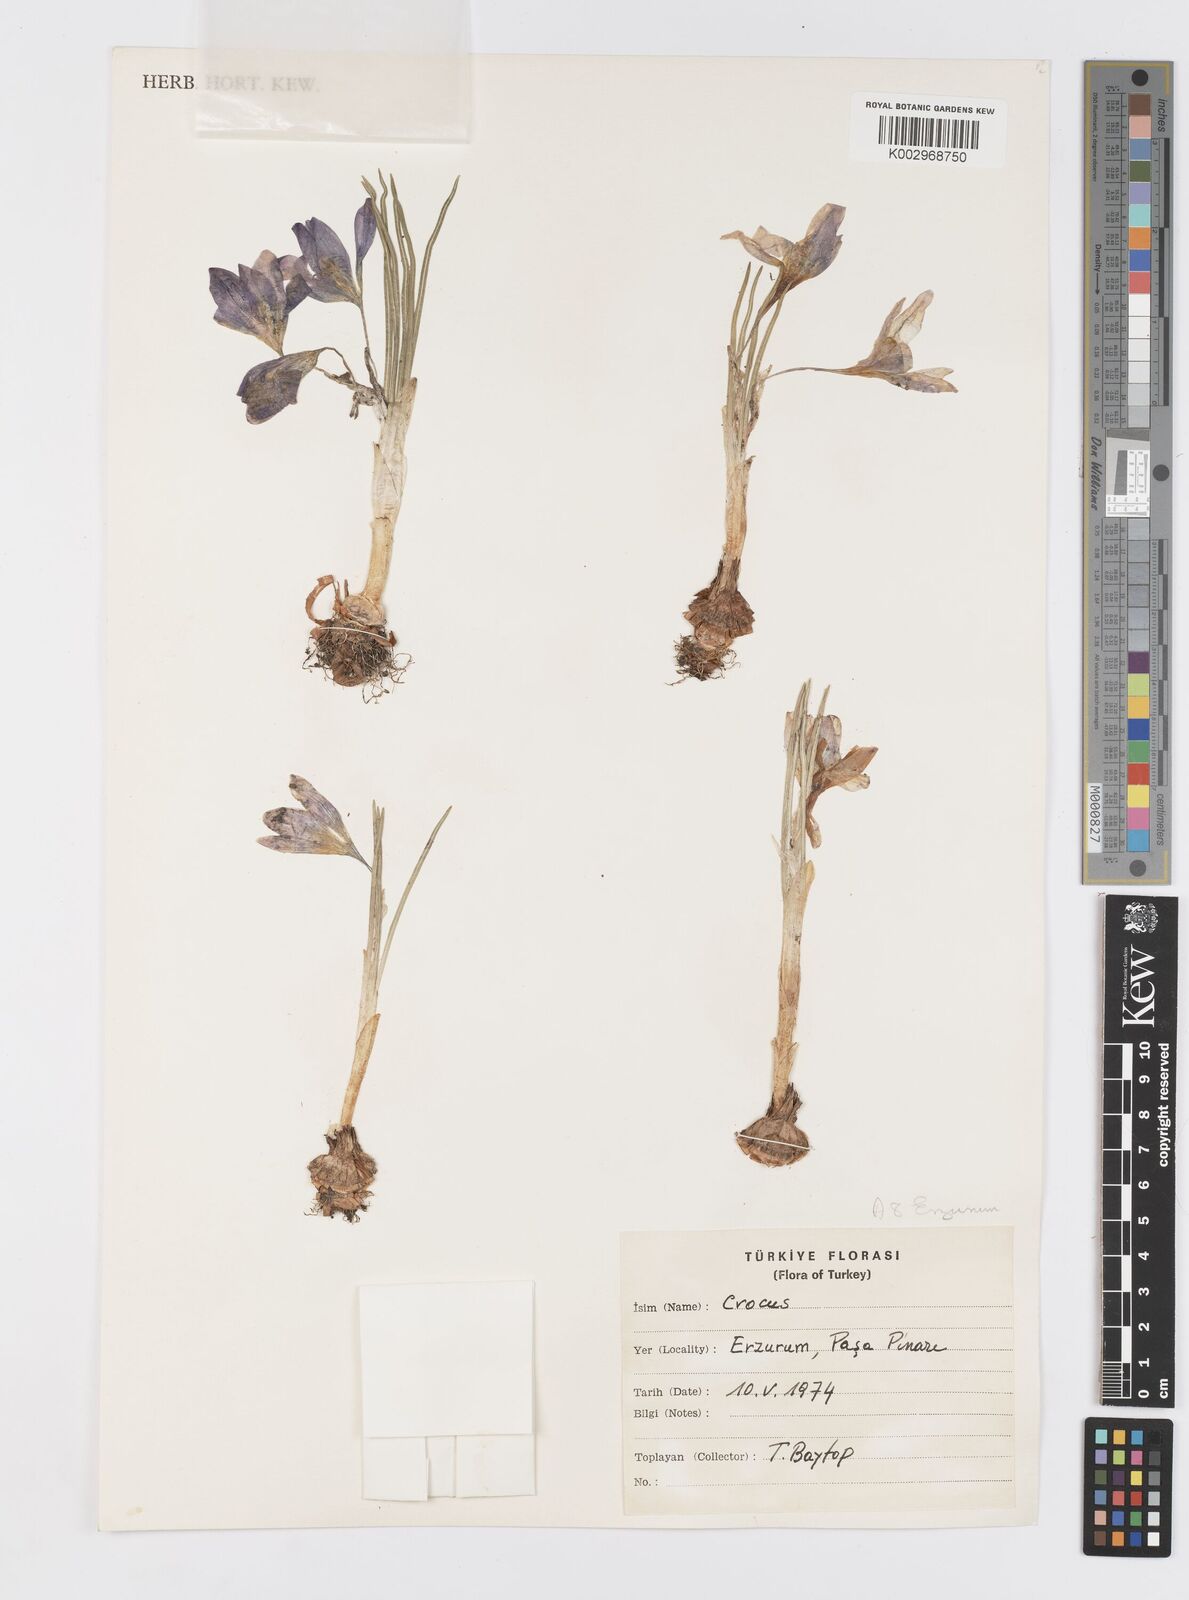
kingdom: Plantae
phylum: Tracheophyta
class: Liliopsida
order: Asparagales
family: Iridaceae
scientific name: Iridaceae
